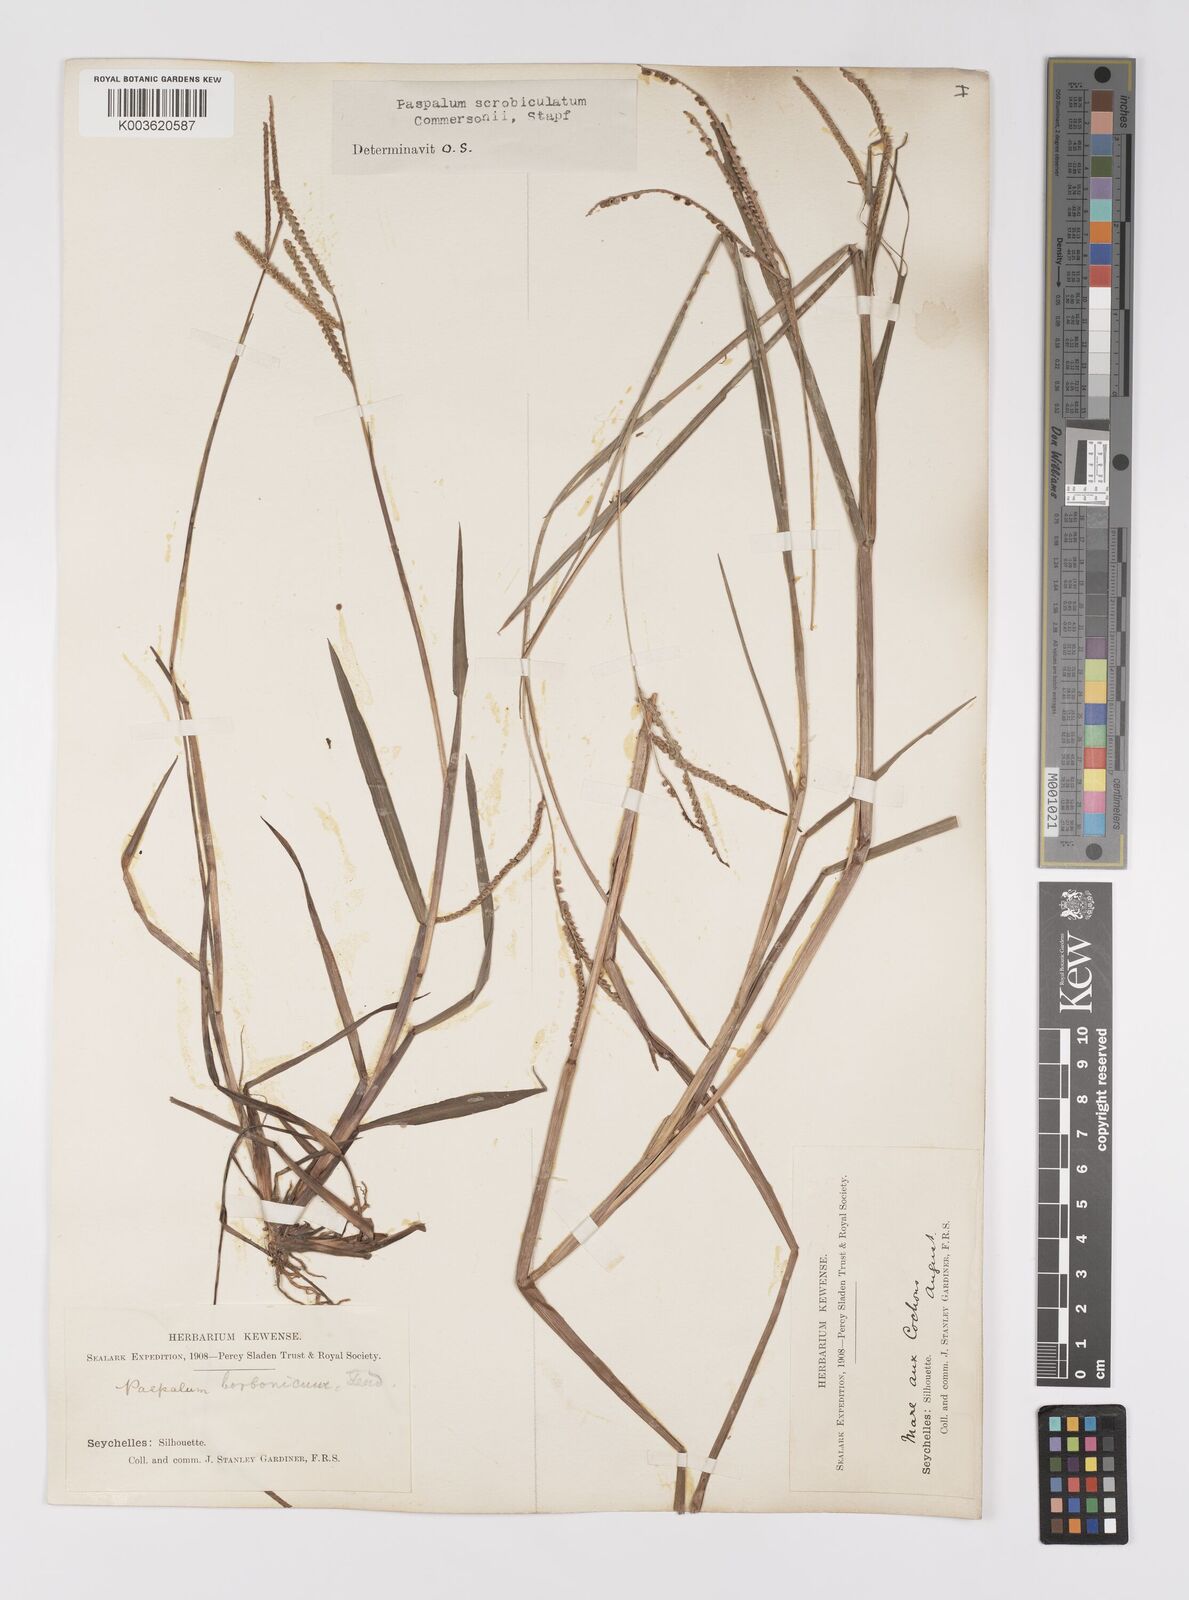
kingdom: Plantae
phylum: Tracheophyta
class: Liliopsida
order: Poales
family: Poaceae
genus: Paspalum
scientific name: Paspalum scrobiculatum
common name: Kodo millet
